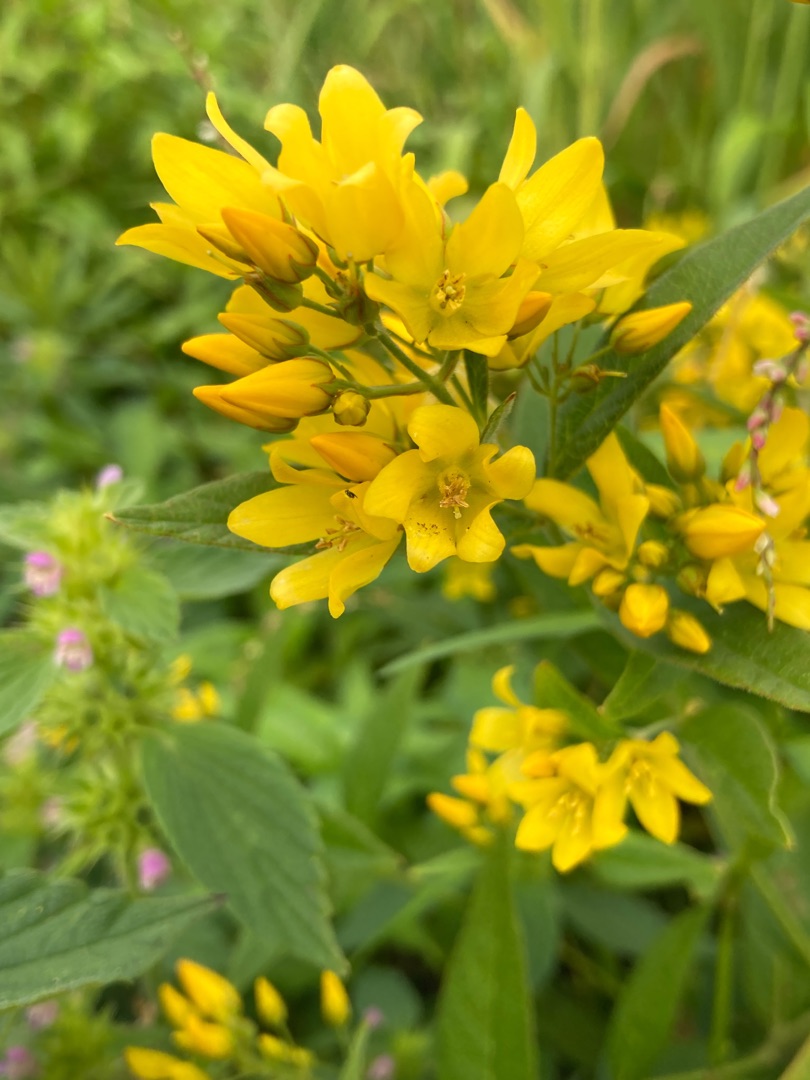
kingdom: Plantae
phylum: Tracheophyta
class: Magnoliopsida
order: Ericales
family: Primulaceae
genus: Lysimachia
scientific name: Lysimachia vulgaris
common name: Almindelig fredløs
